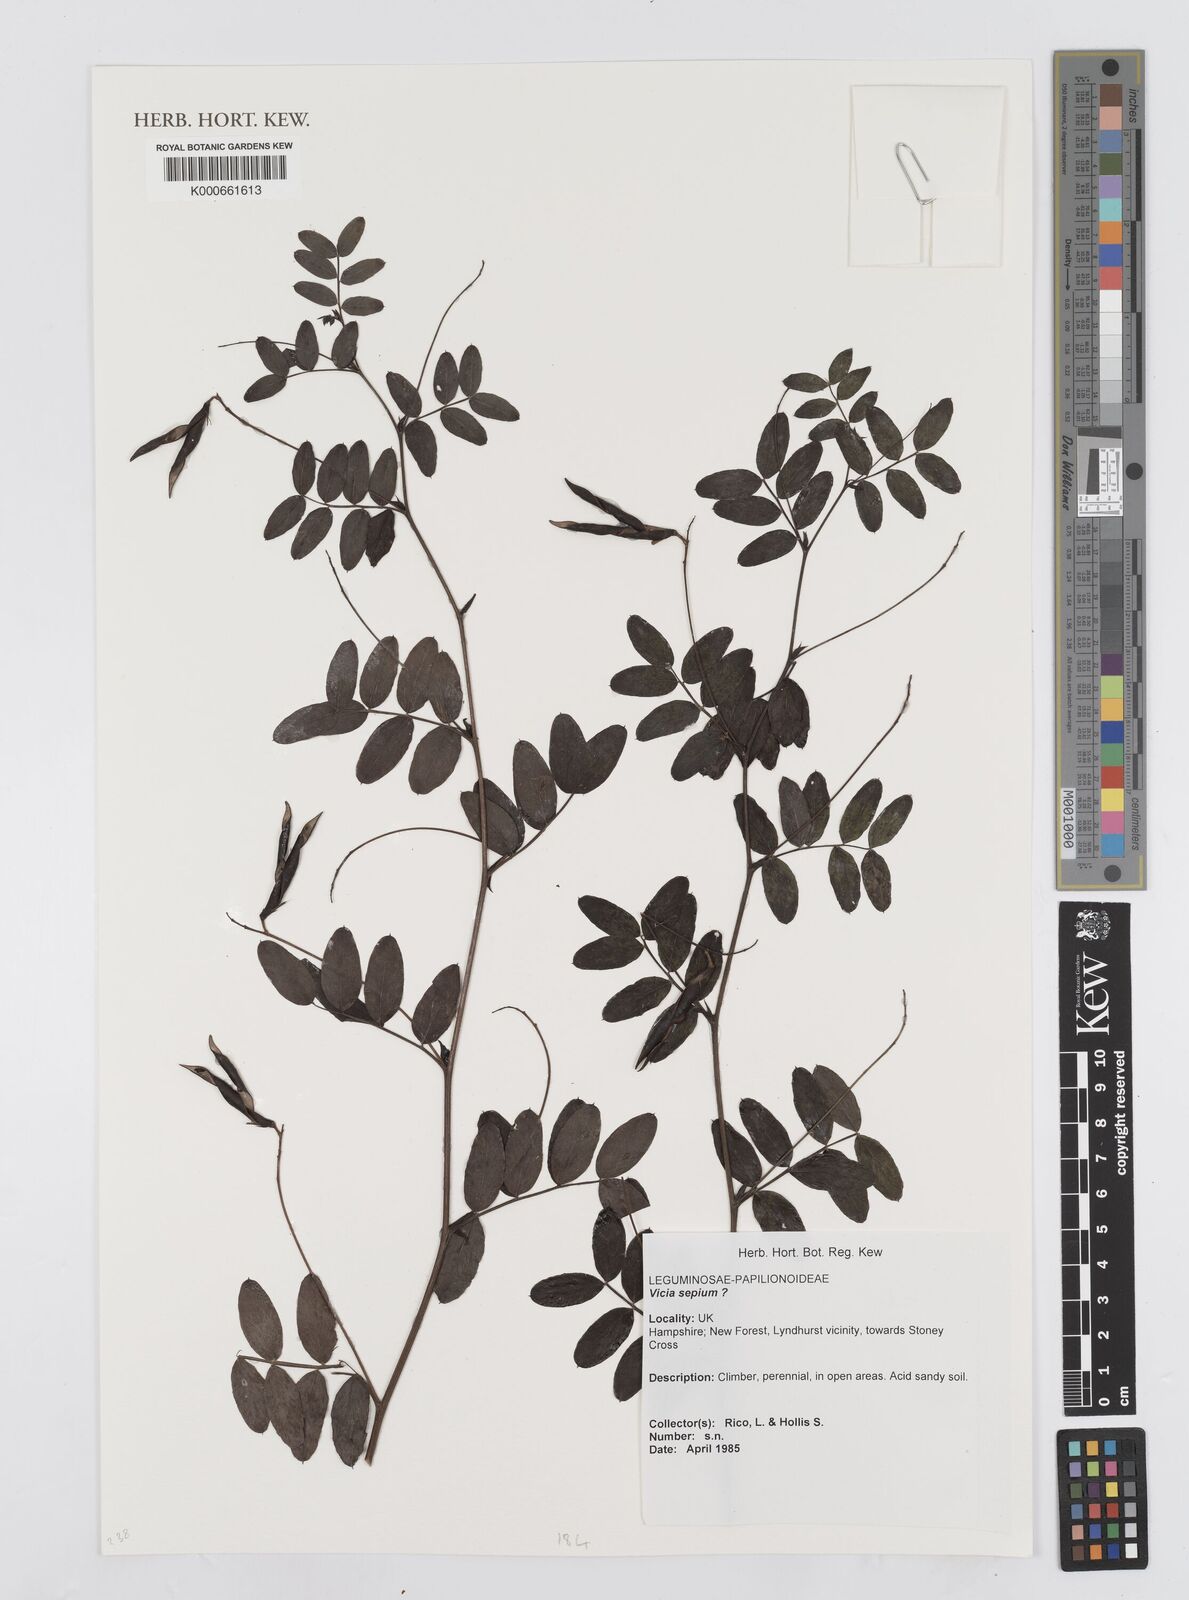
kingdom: Plantae
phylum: Tracheophyta
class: Magnoliopsida
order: Fabales
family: Fabaceae
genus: Vicia
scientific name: Vicia sepium
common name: Bush vetch
